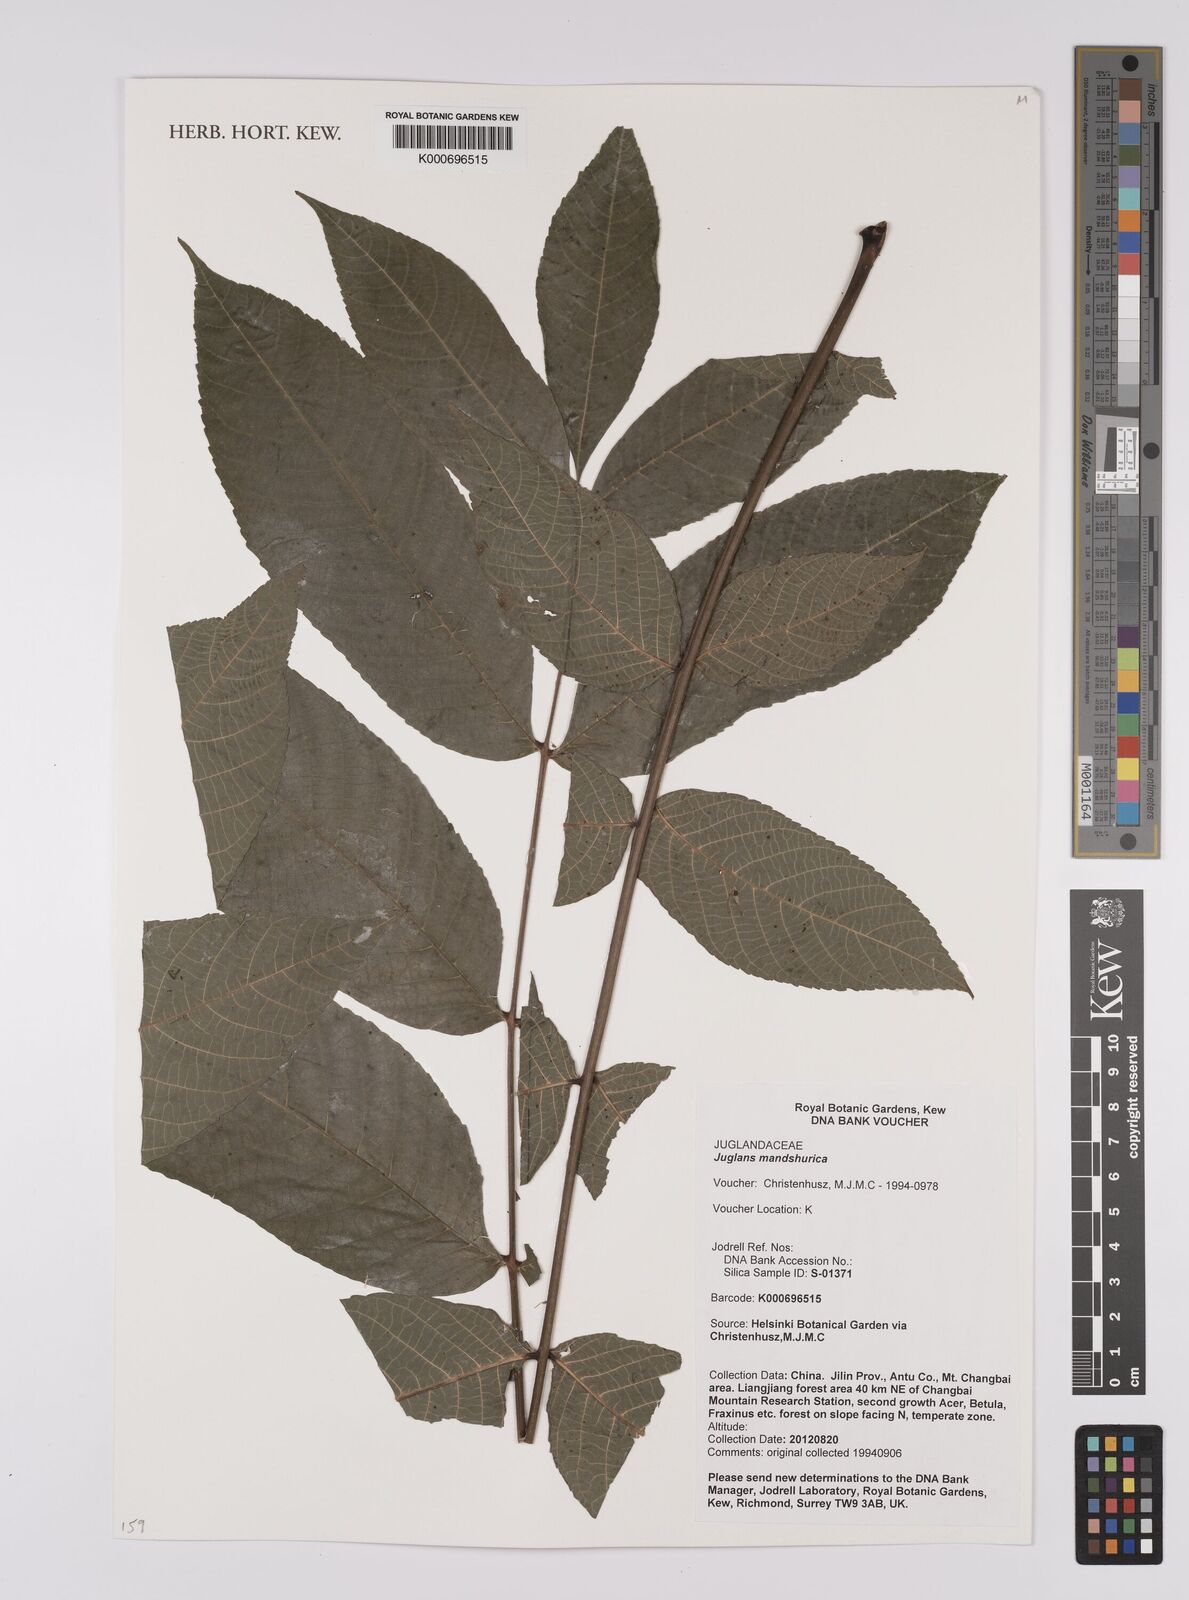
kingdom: Plantae
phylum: Tracheophyta
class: Magnoliopsida
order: Fagales
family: Juglandaceae
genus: Juglans
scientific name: Juglans
